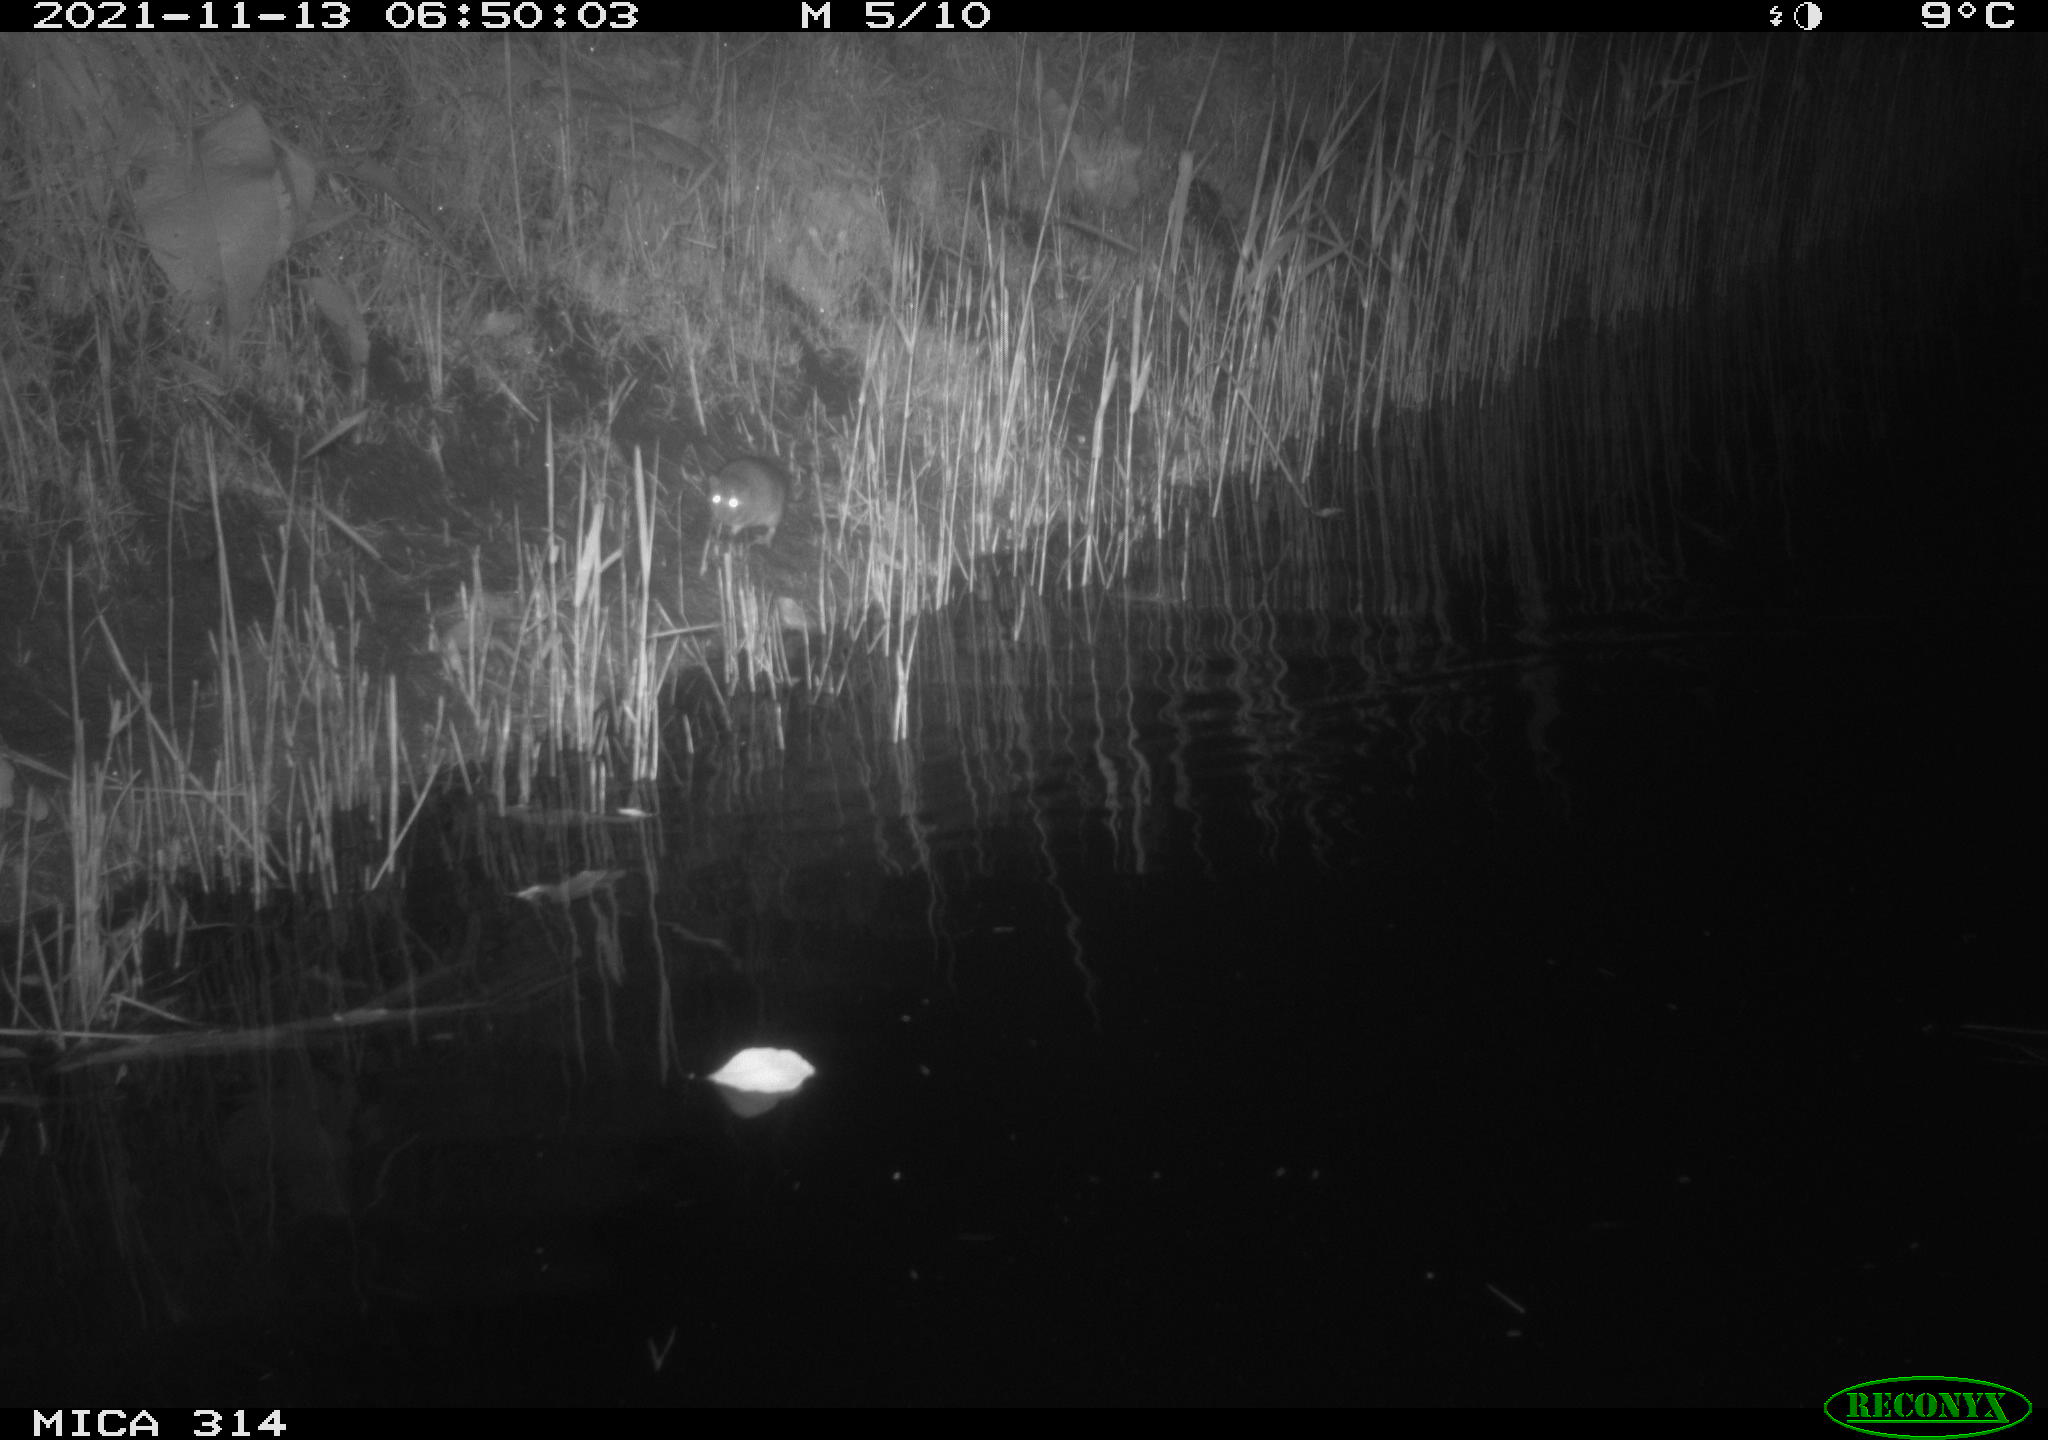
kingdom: Animalia
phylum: Chordata
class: Mammalia
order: Rodentia
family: Muridae
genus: Rattus
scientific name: Rattus norvegicus
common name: Brown rat
